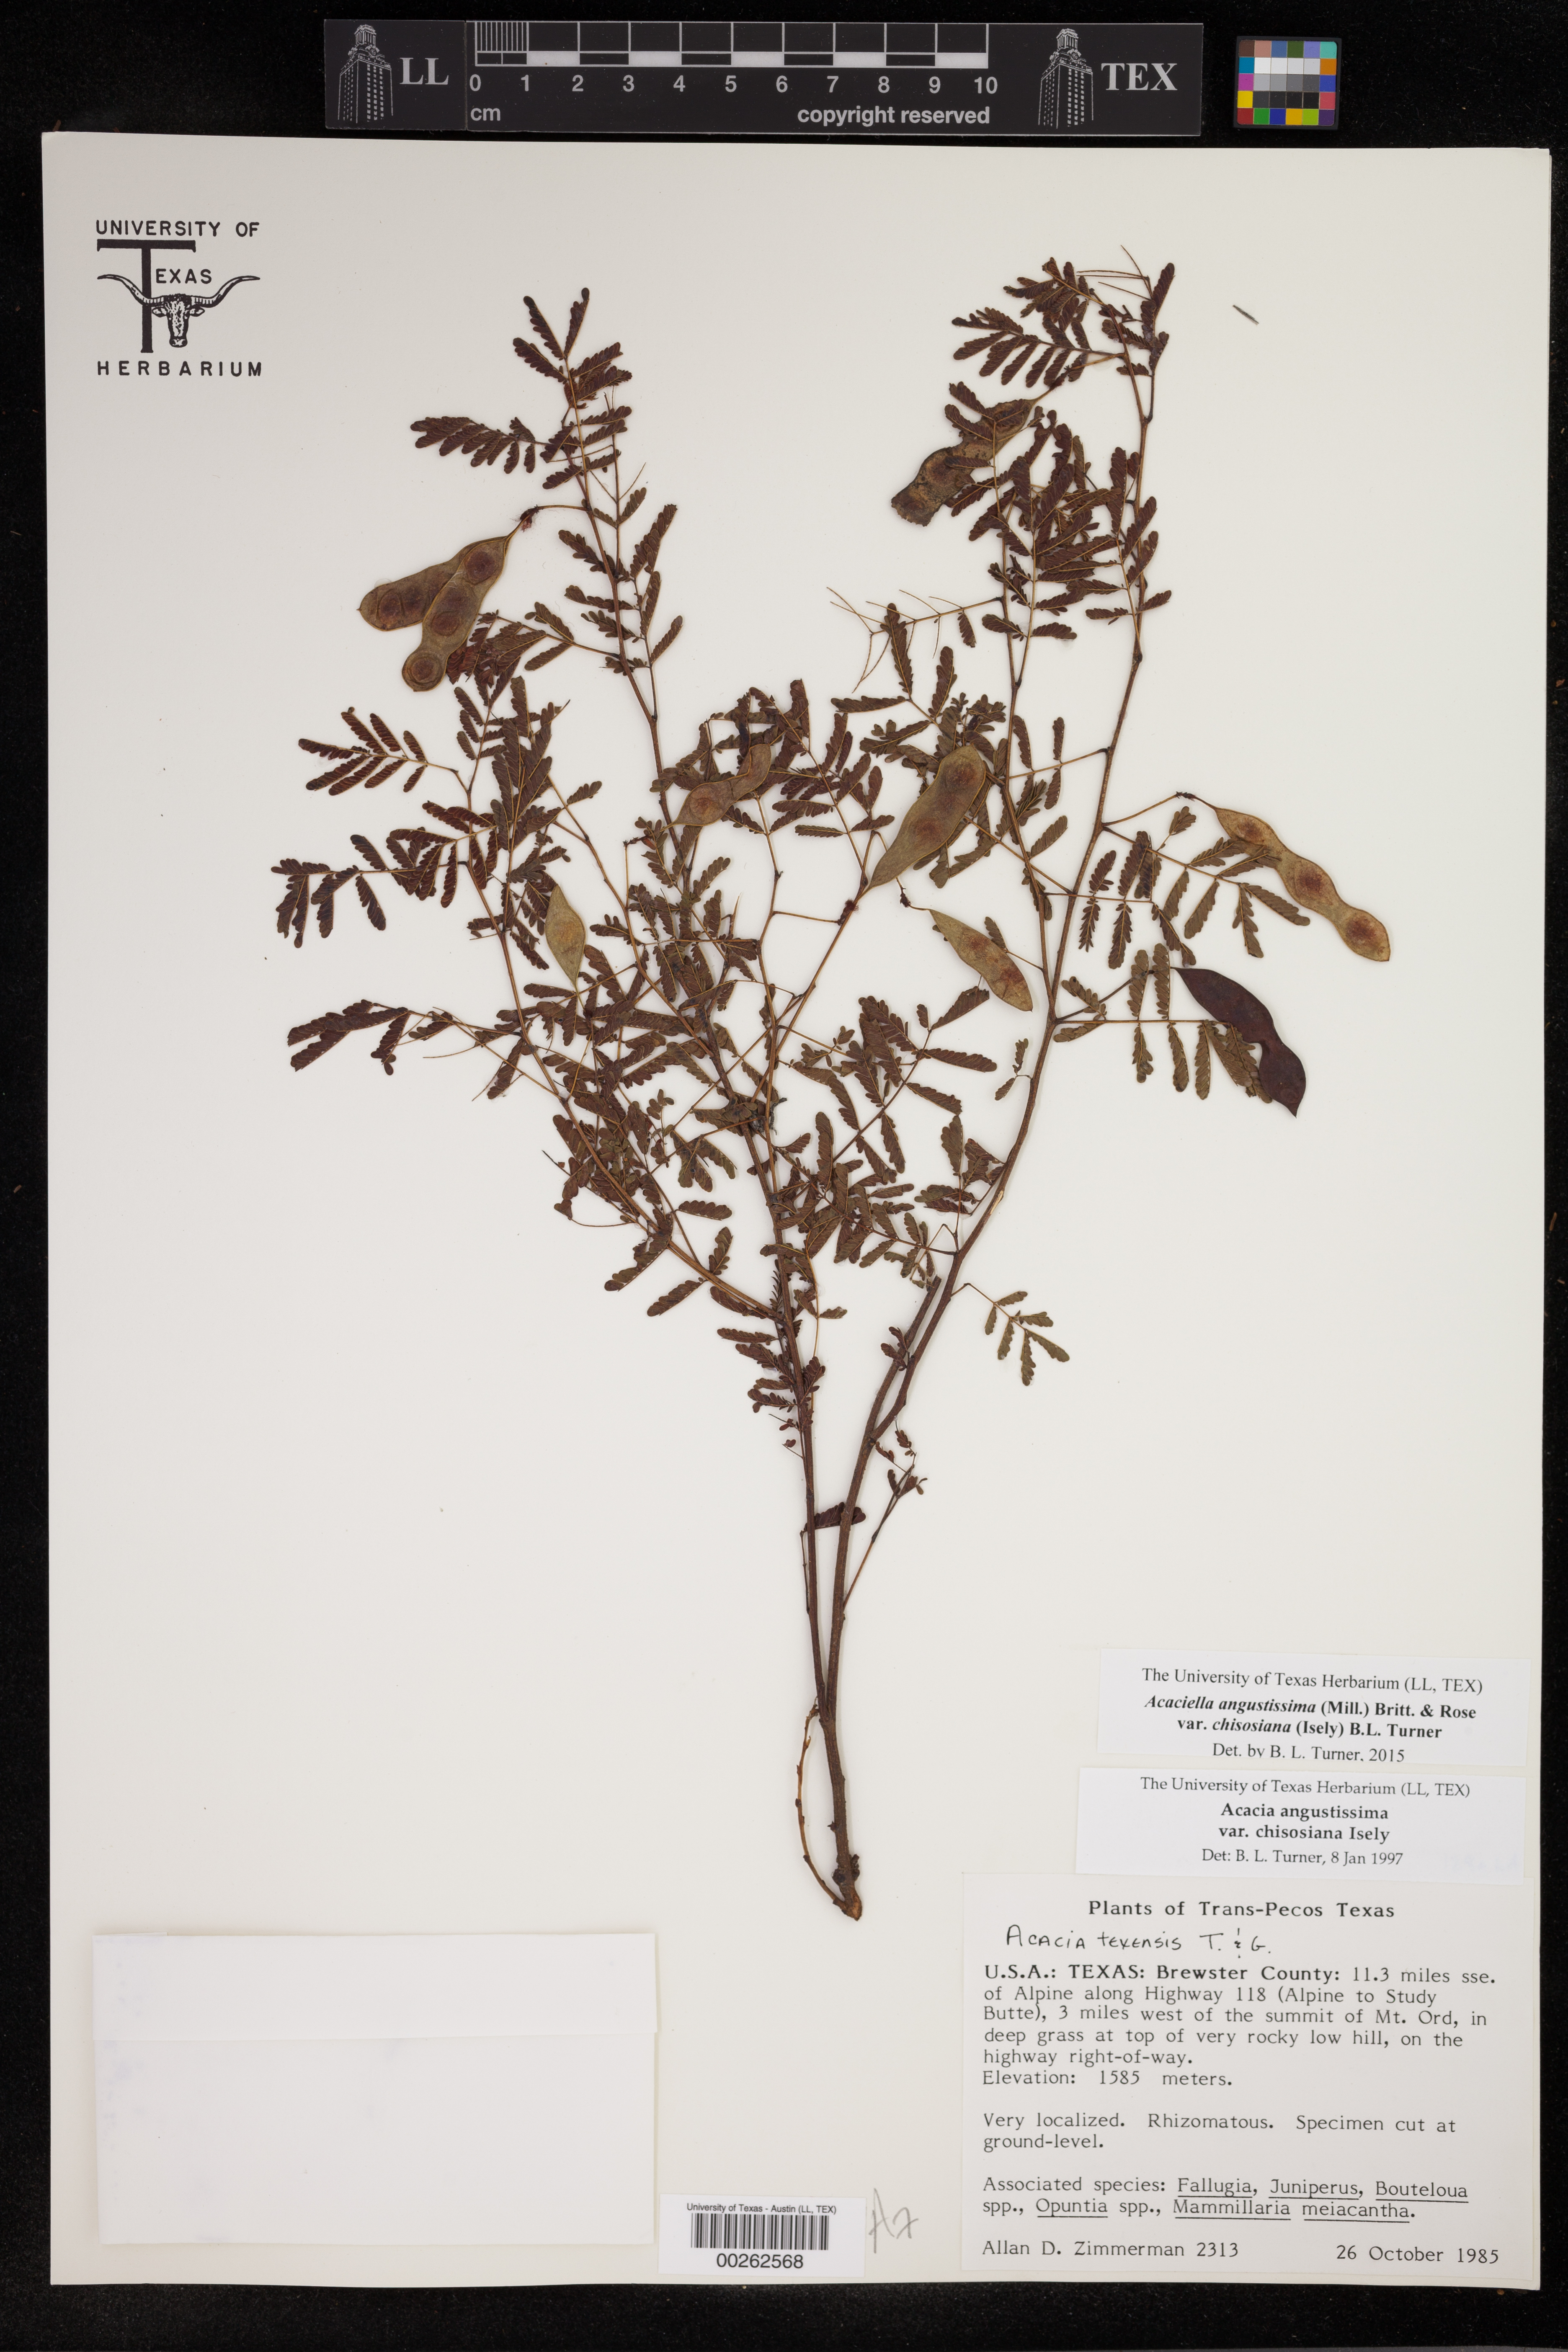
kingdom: Plantae
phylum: Tracheophyta
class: Magnoliopsida
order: Fabales
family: Fabaceae
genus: Acaciella
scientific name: Acaciella angustissima
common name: Prairie acacia
